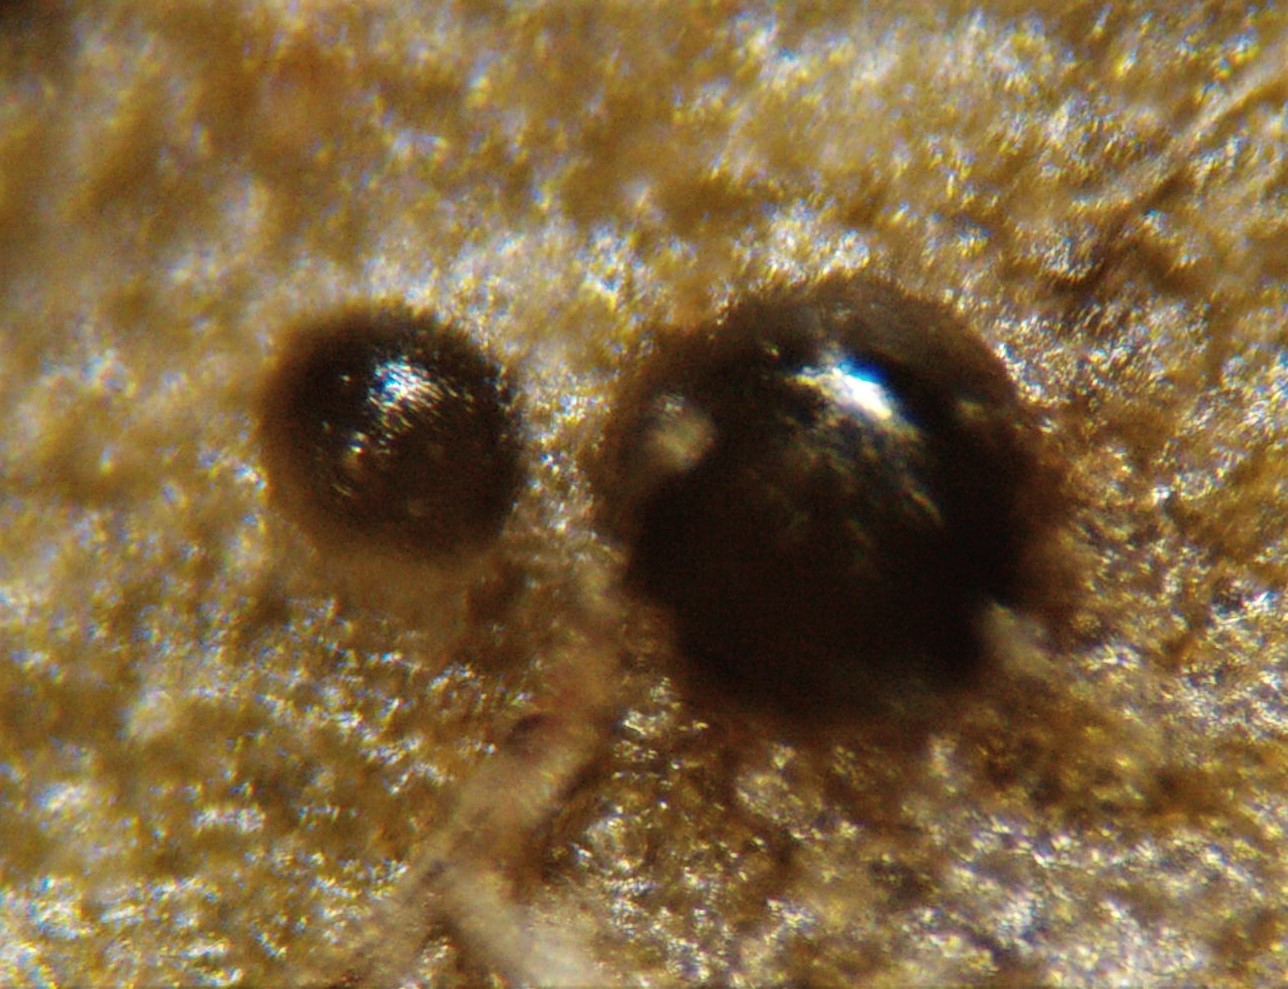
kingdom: Fungi
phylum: Ascomycota
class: Leotiomycetes
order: Helotiales
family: Cenangiaceae
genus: Trochila
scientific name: Trochila craterium
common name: vedbend-lågskive
